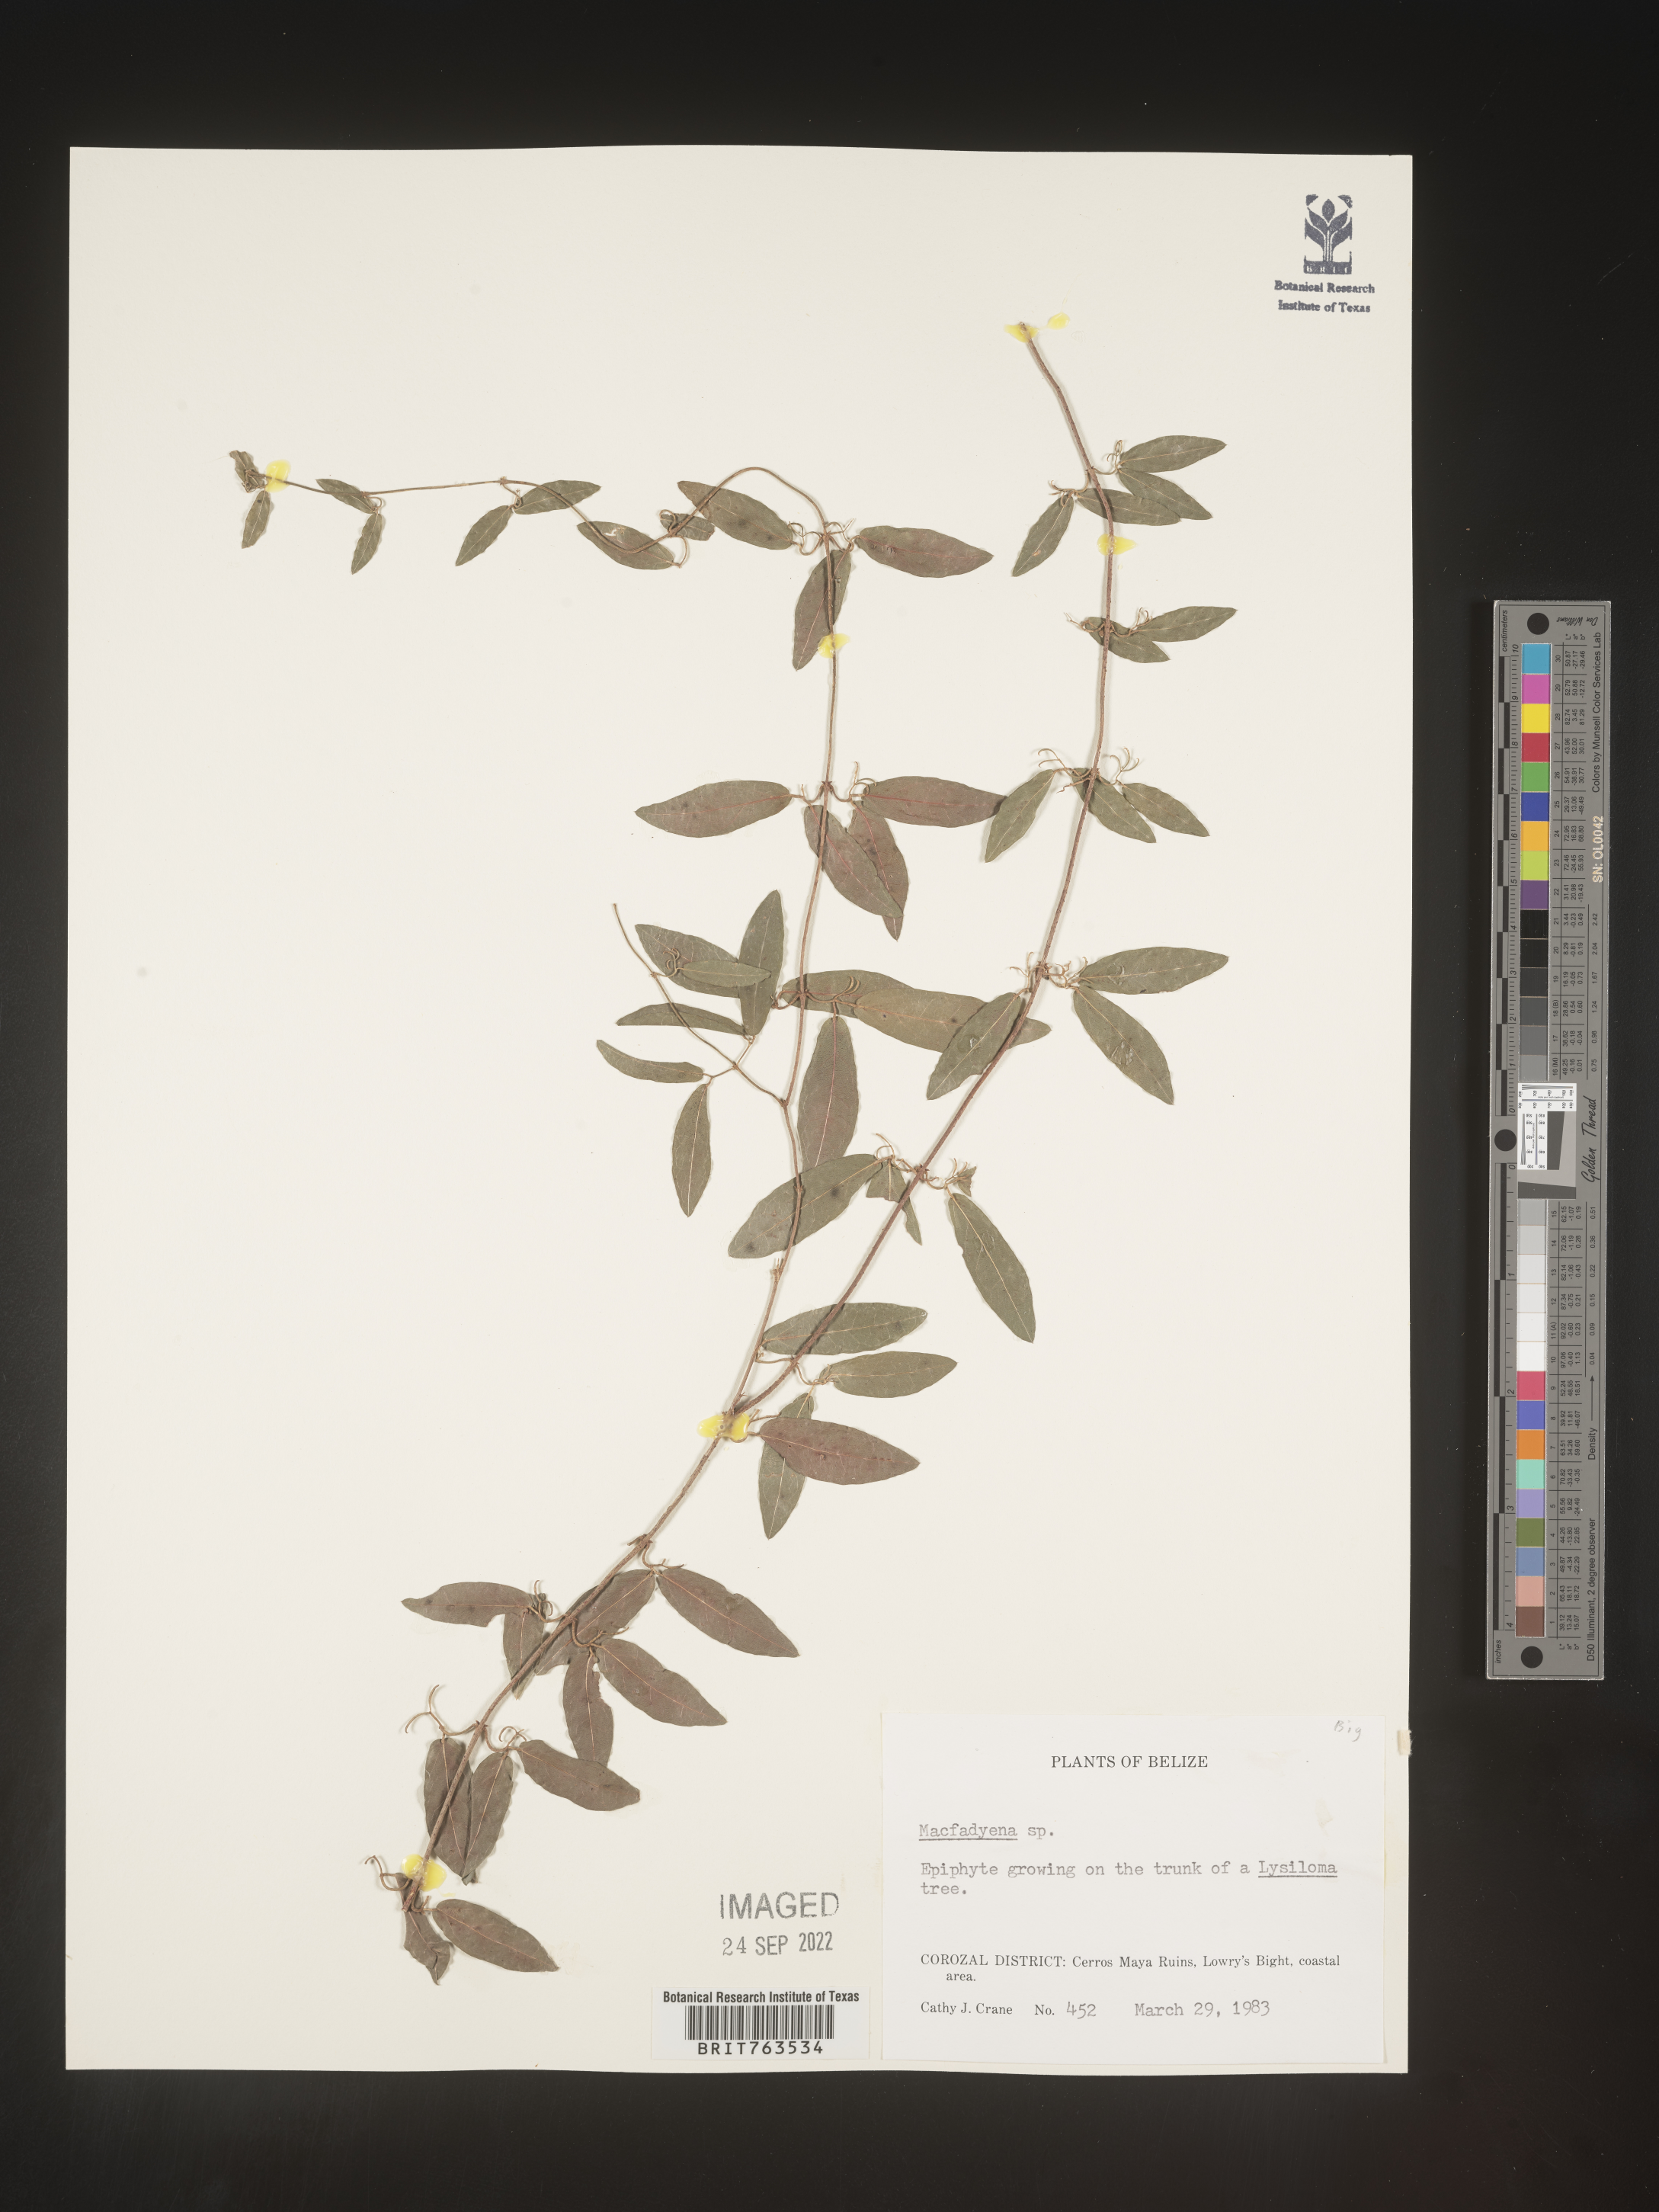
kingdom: Animalia
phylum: Chordata
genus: Macfadyena
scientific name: Macfadyena
